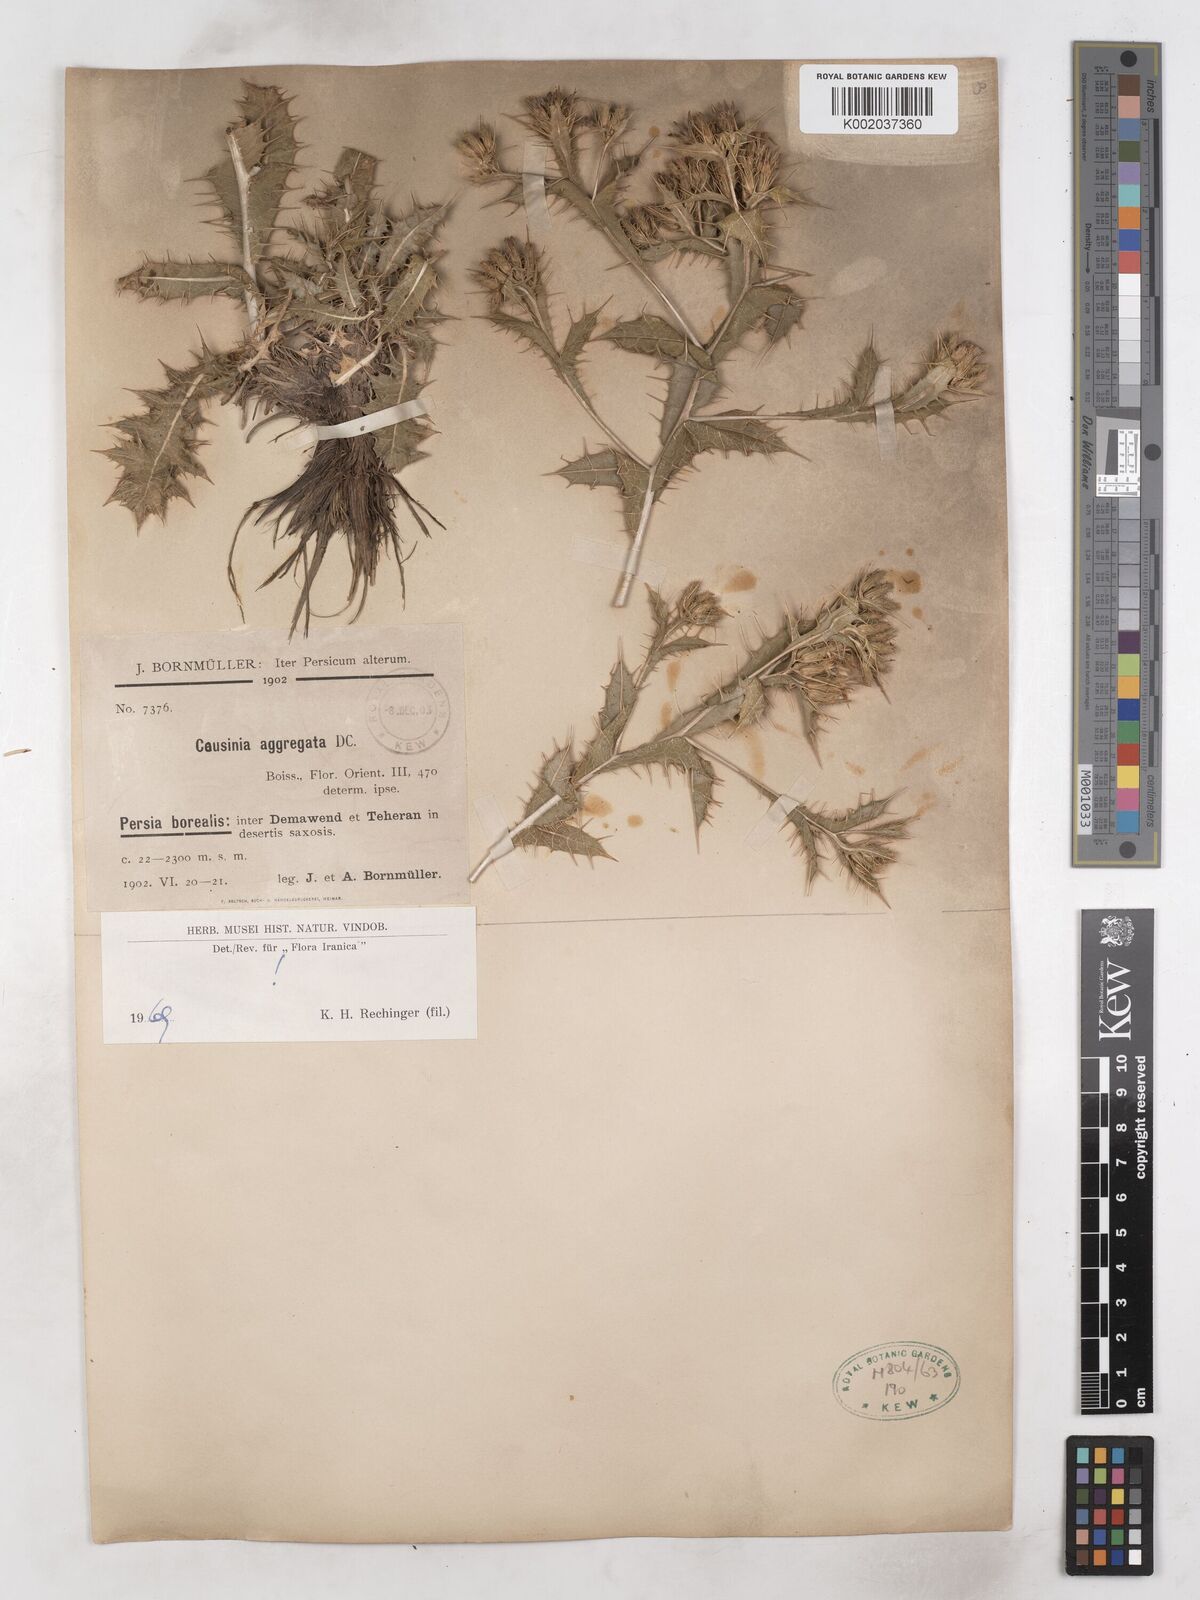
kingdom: Plantae
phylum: Tracheophyta
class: Magnoliopsida
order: Asterales
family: Asteraceae
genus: Cousinia
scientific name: Cousinia aggregata
